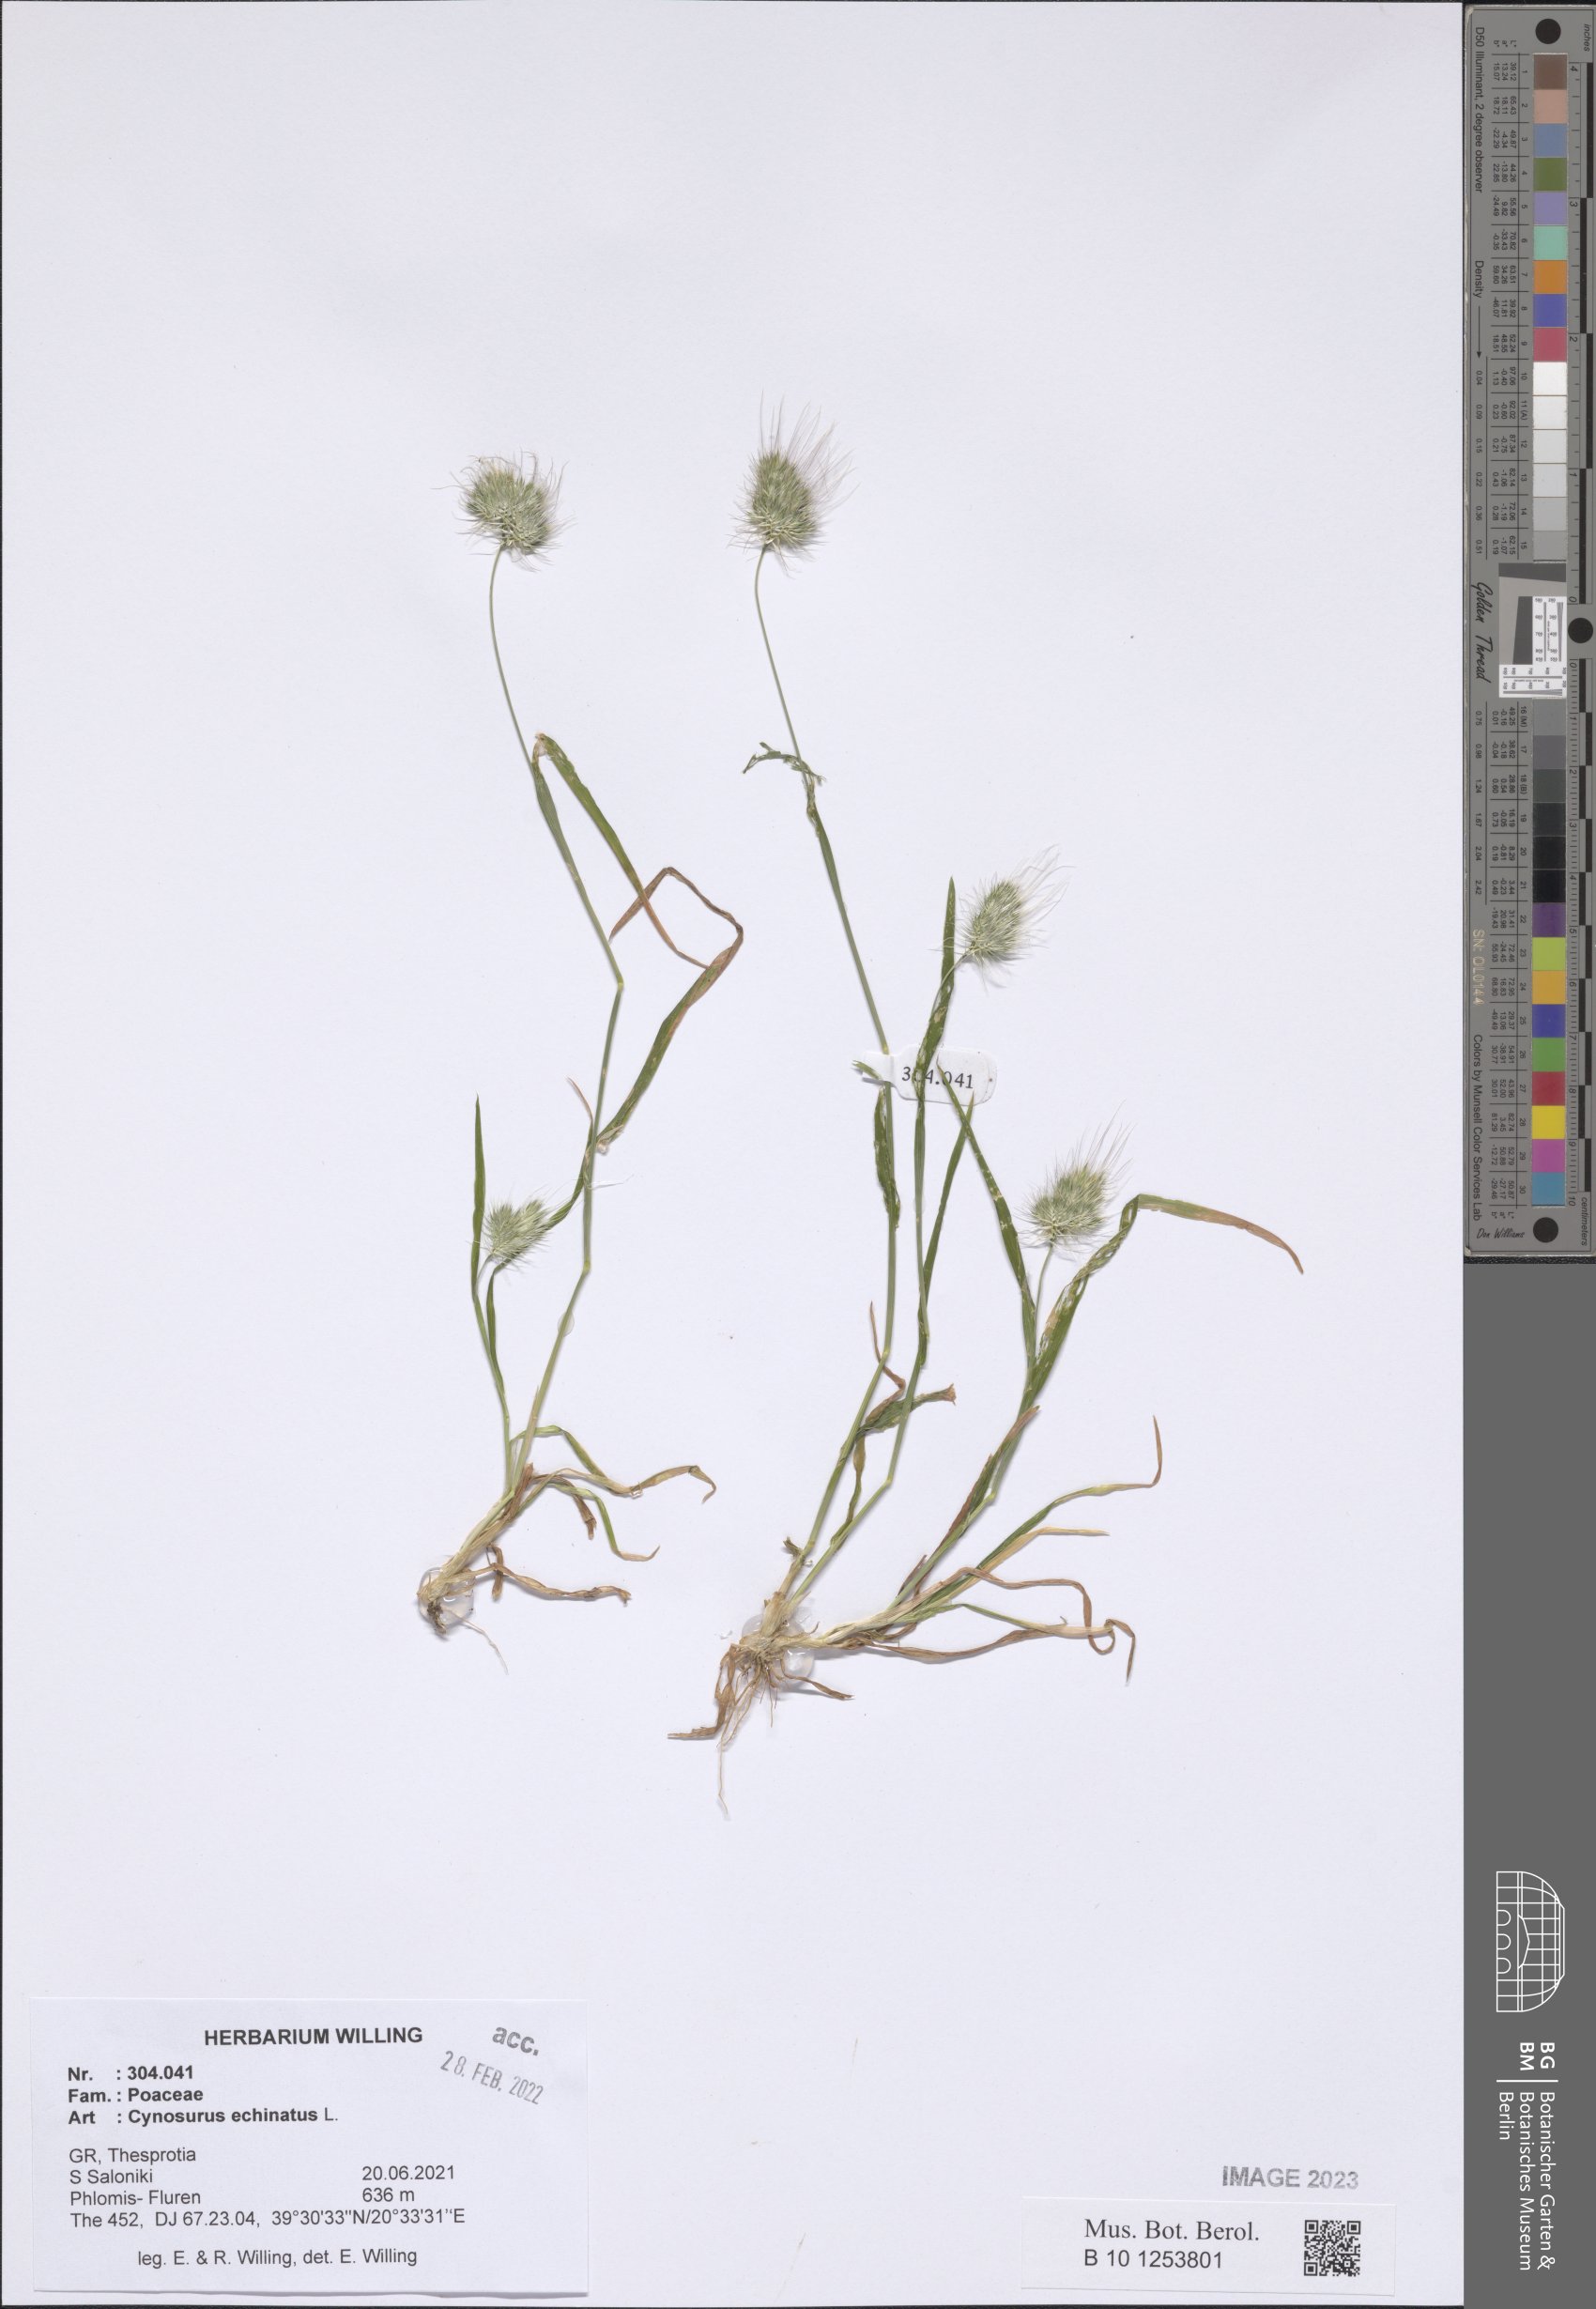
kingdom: Plantae
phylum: Tracheophyta
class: Liliopsida
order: Poales
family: Poaceae
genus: Cynosurus
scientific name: Cynosurus echinatus
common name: Rough dog's-tail
